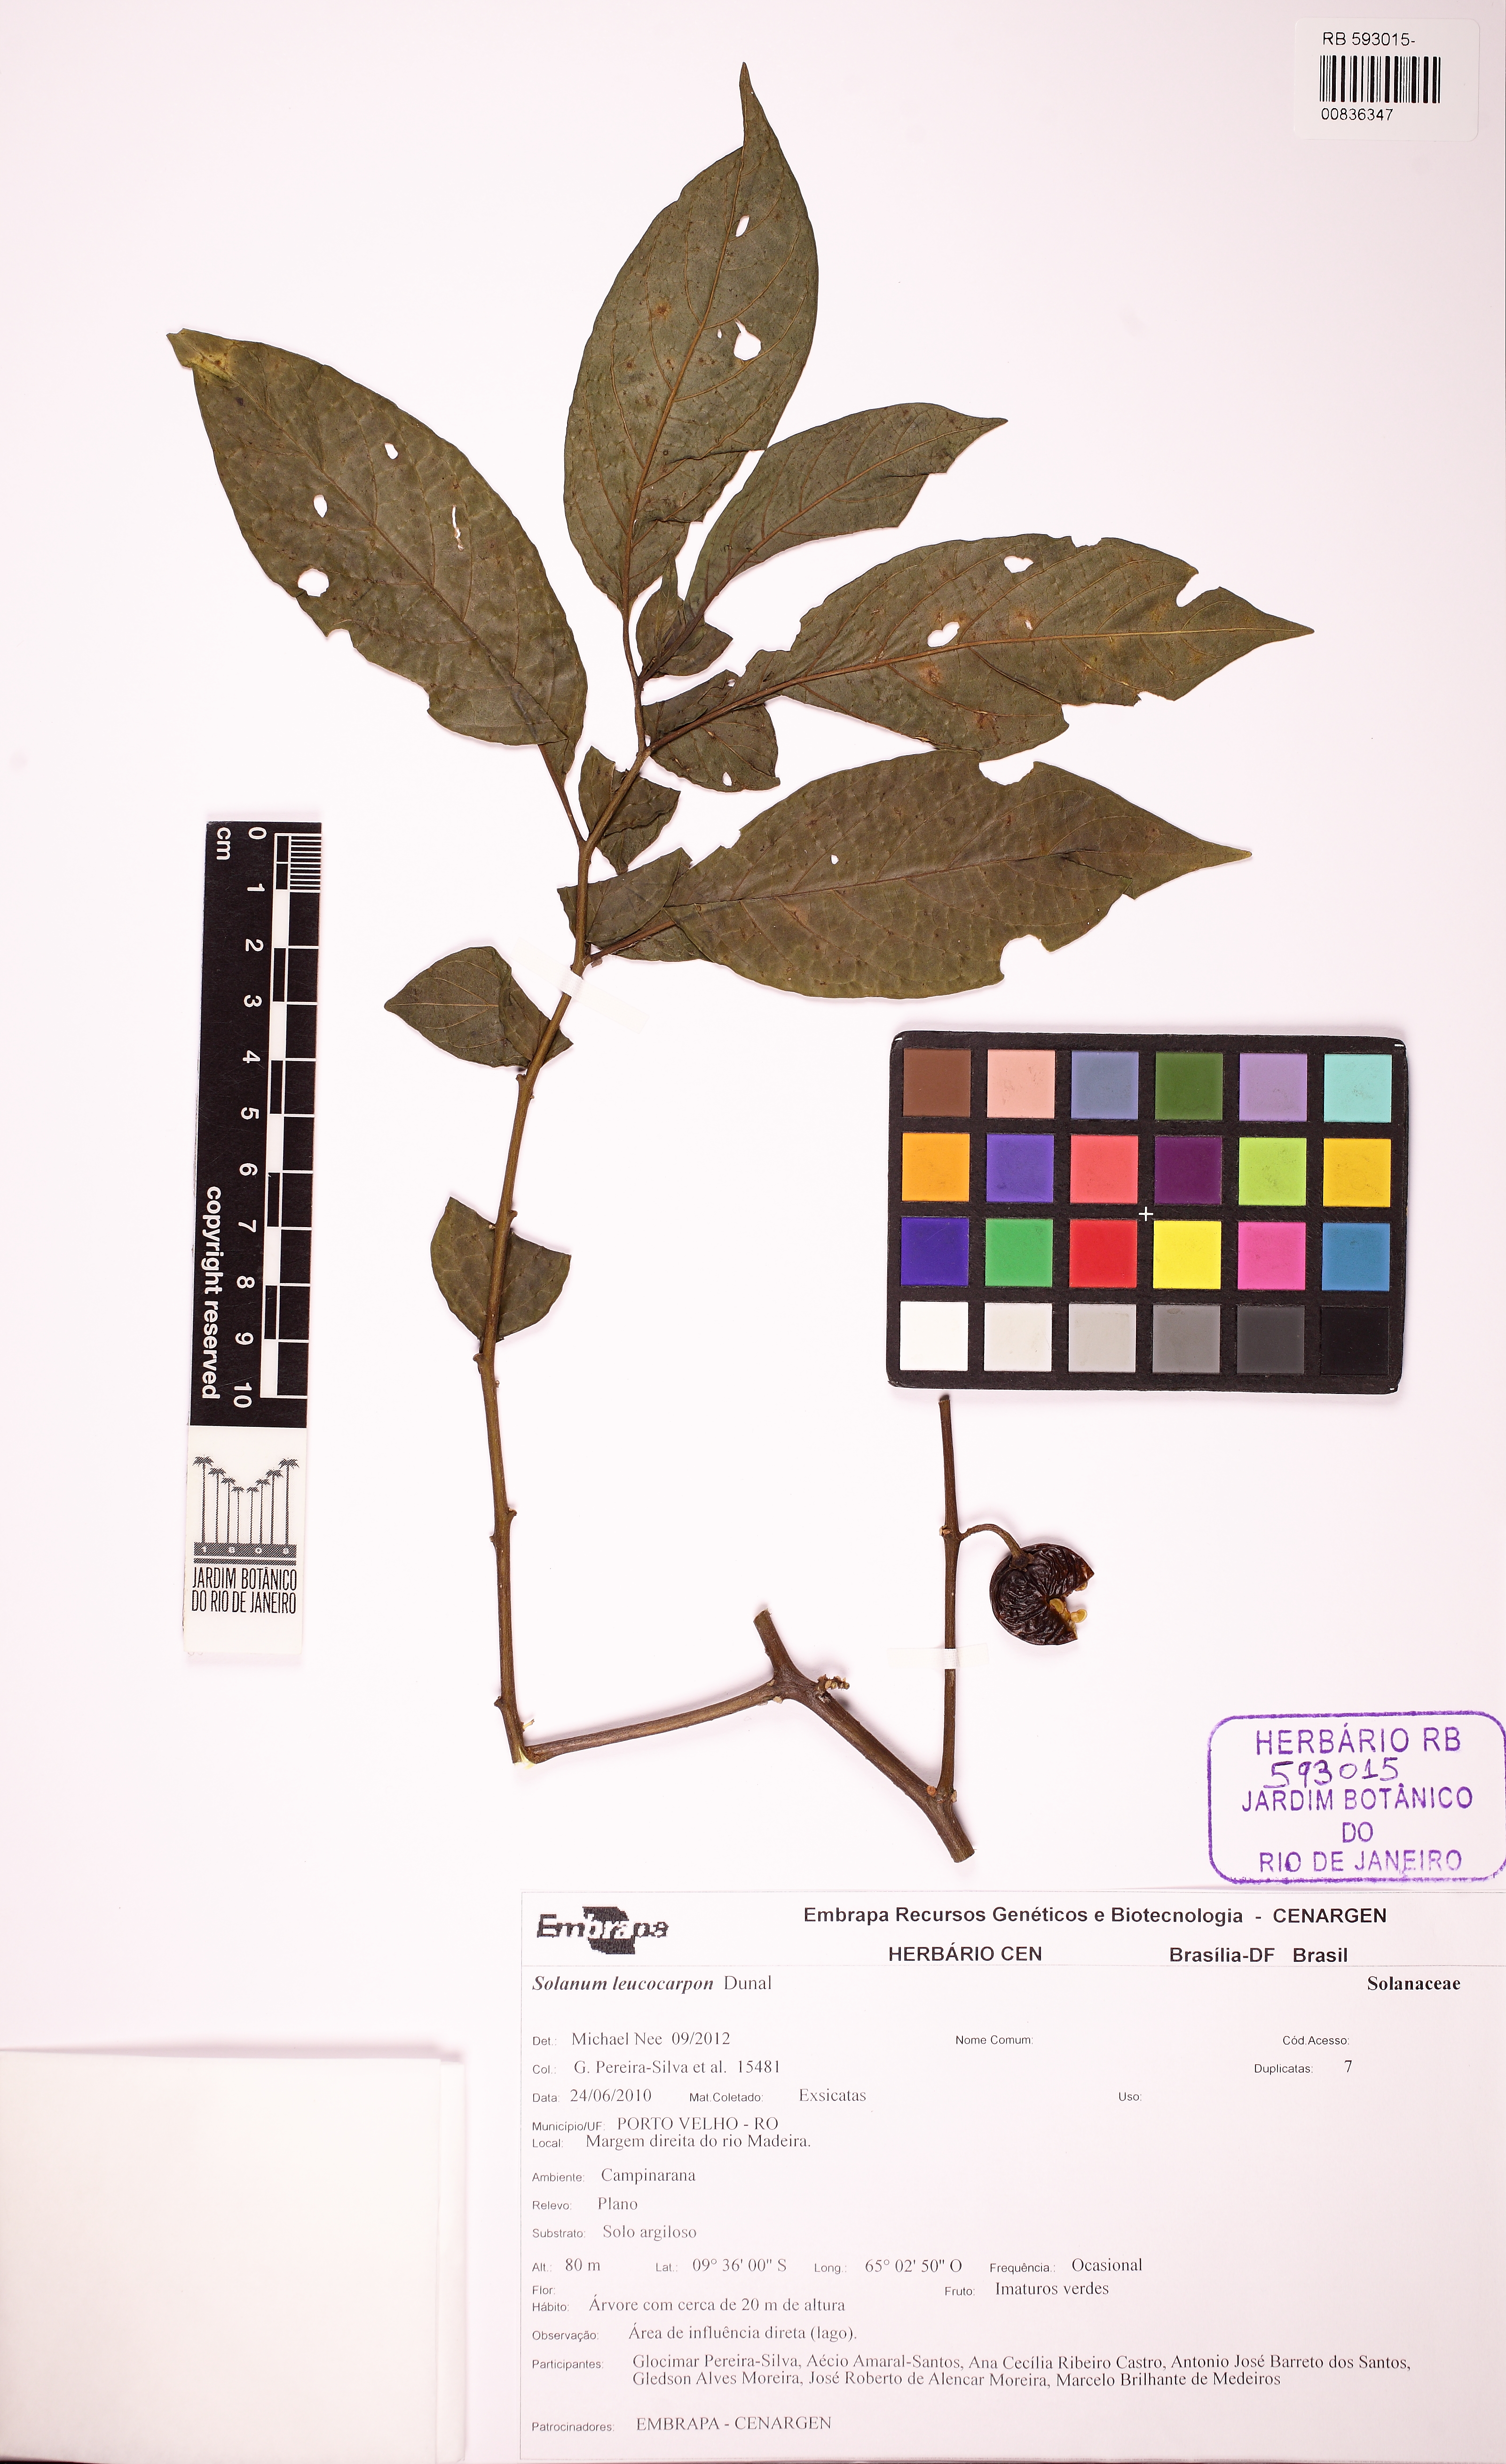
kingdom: Plantae
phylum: Tracheophyta
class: Magnoliopsida
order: Solanales
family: Solanaceae
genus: Solanum
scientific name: Solanum leucocarpon
